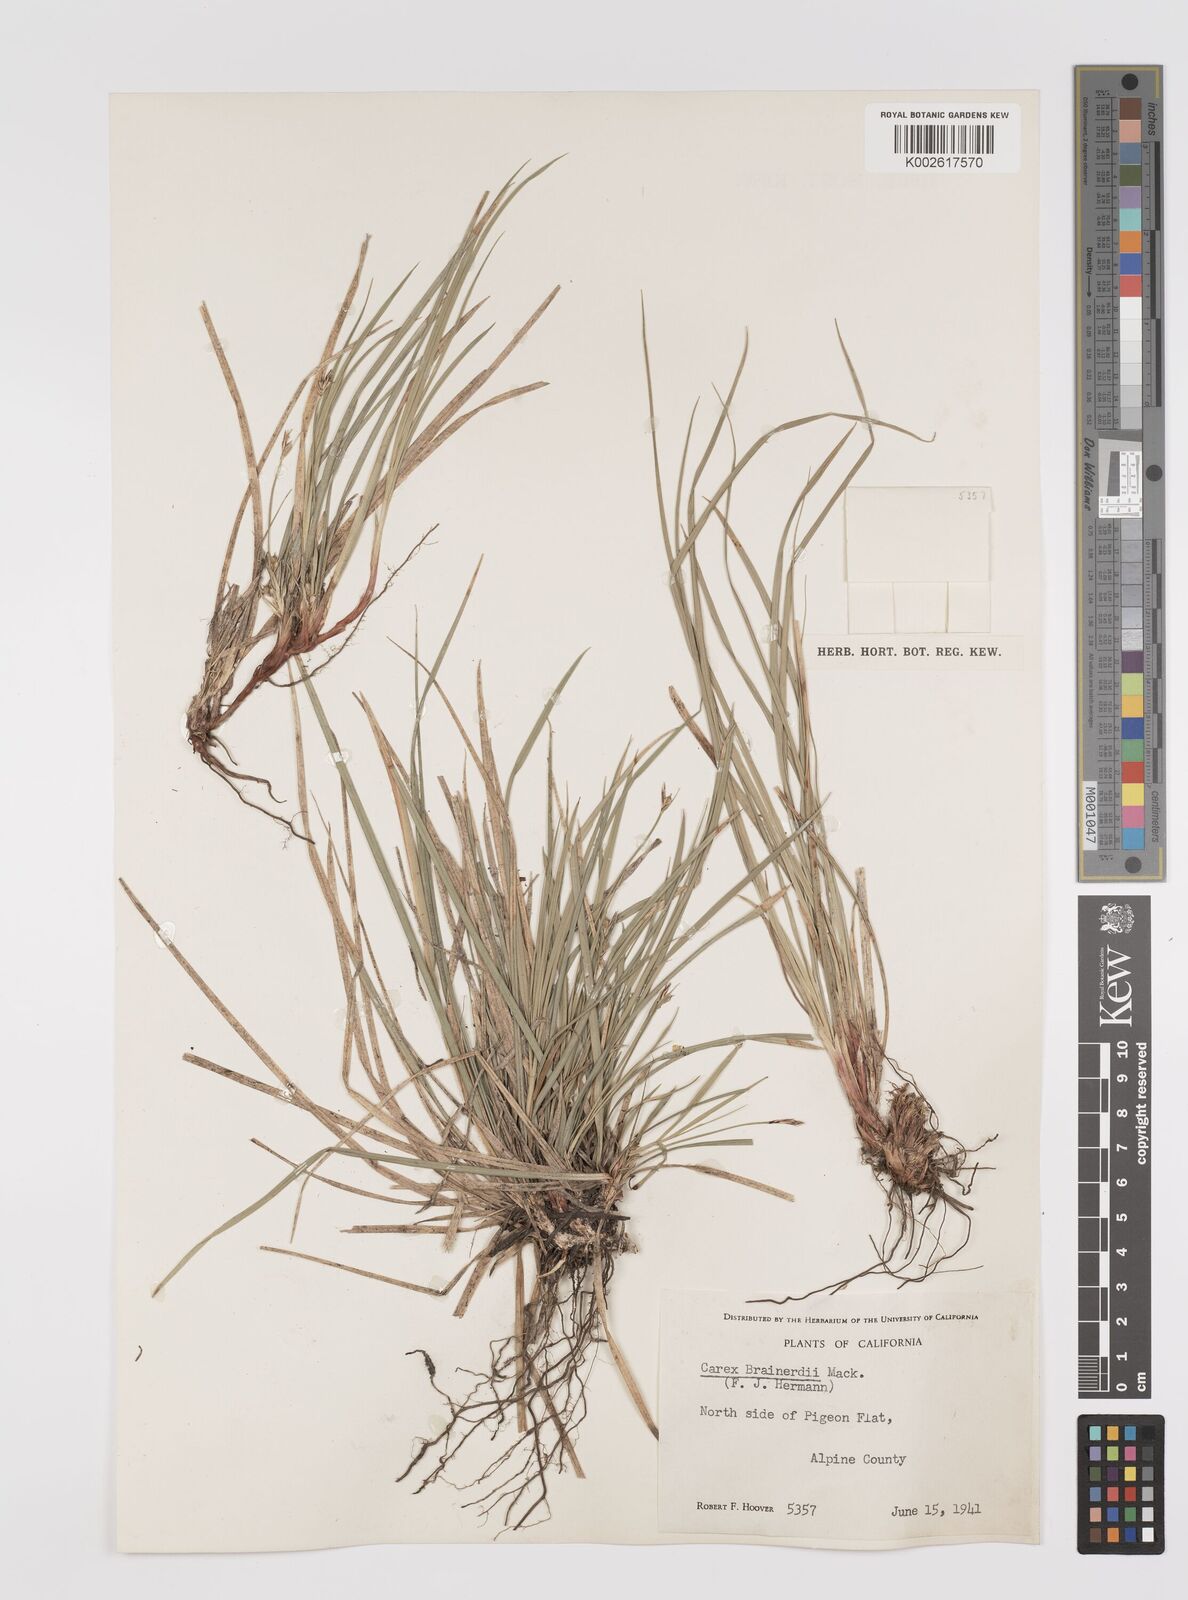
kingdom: Plantae
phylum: Tracheophyta
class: Liliopsida
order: Poales
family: Cyperaceae
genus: Carex
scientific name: Carex brainerdii
